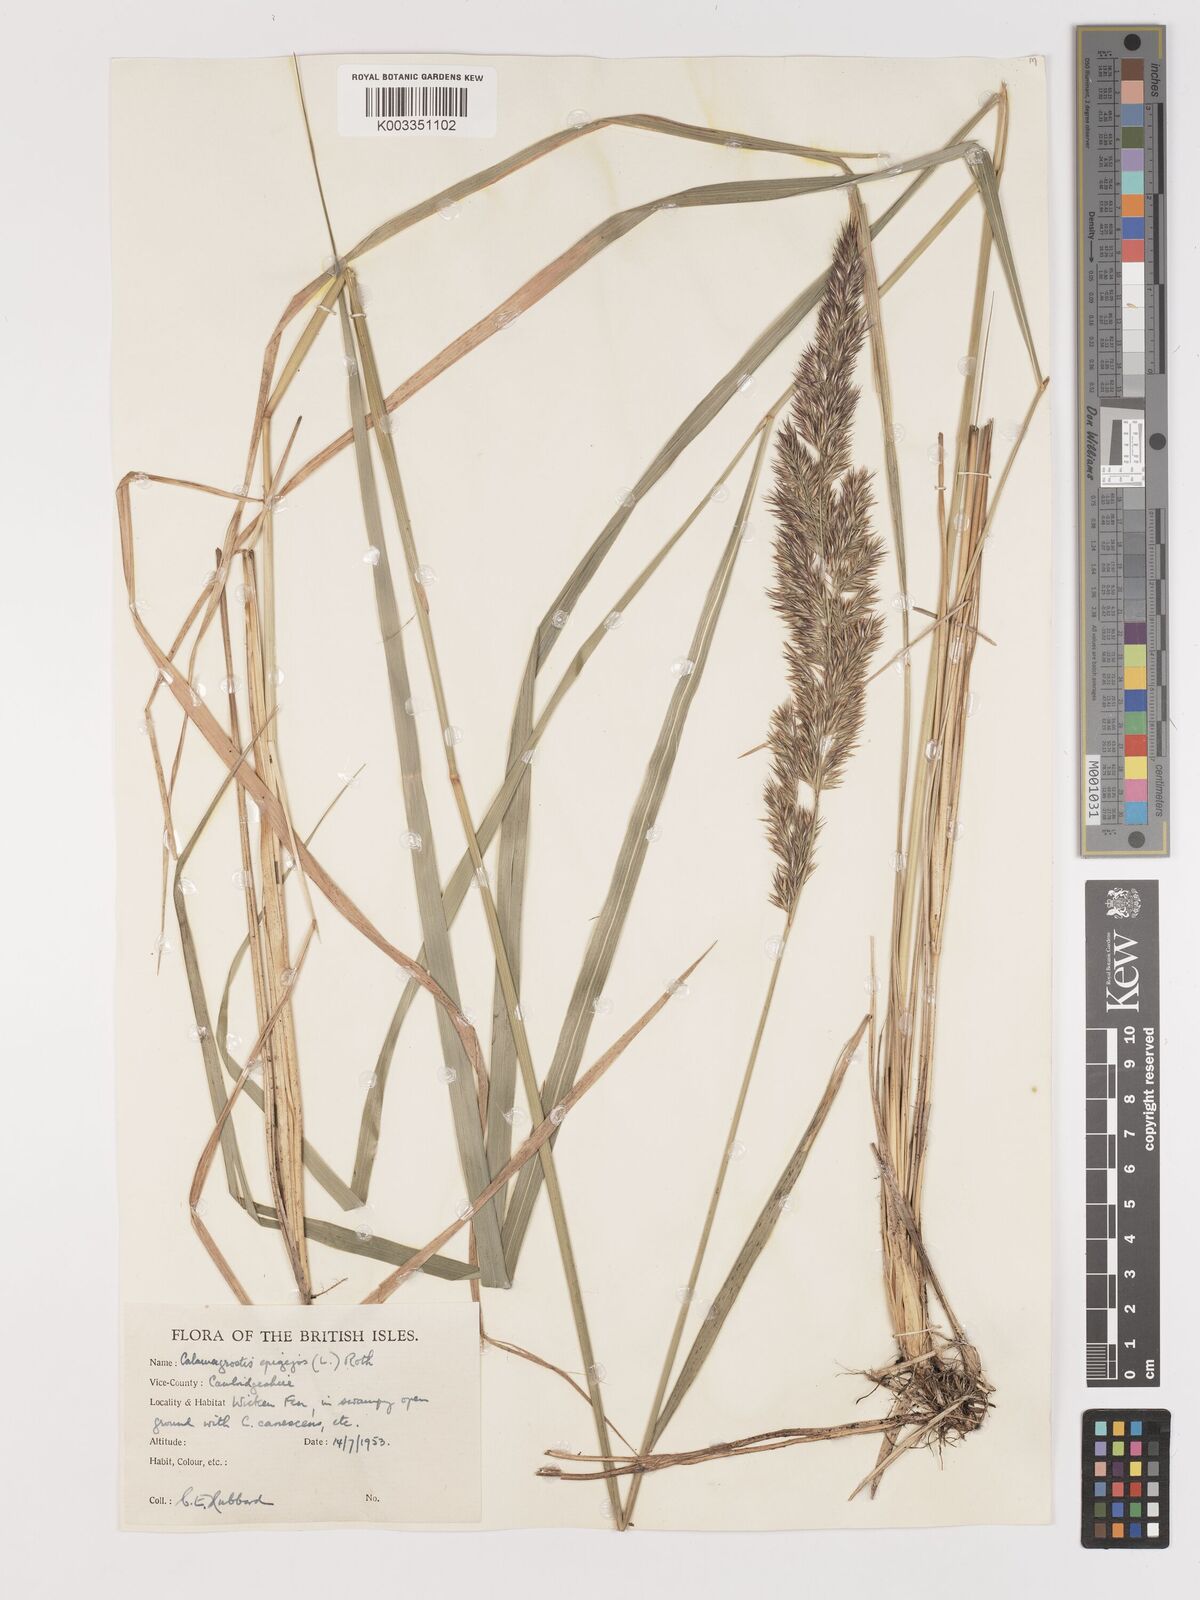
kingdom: Plantae
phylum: Tracheophyta
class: Liliopsida
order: Poales
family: Poaceae
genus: Calamagrostis
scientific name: Calamagrostis
